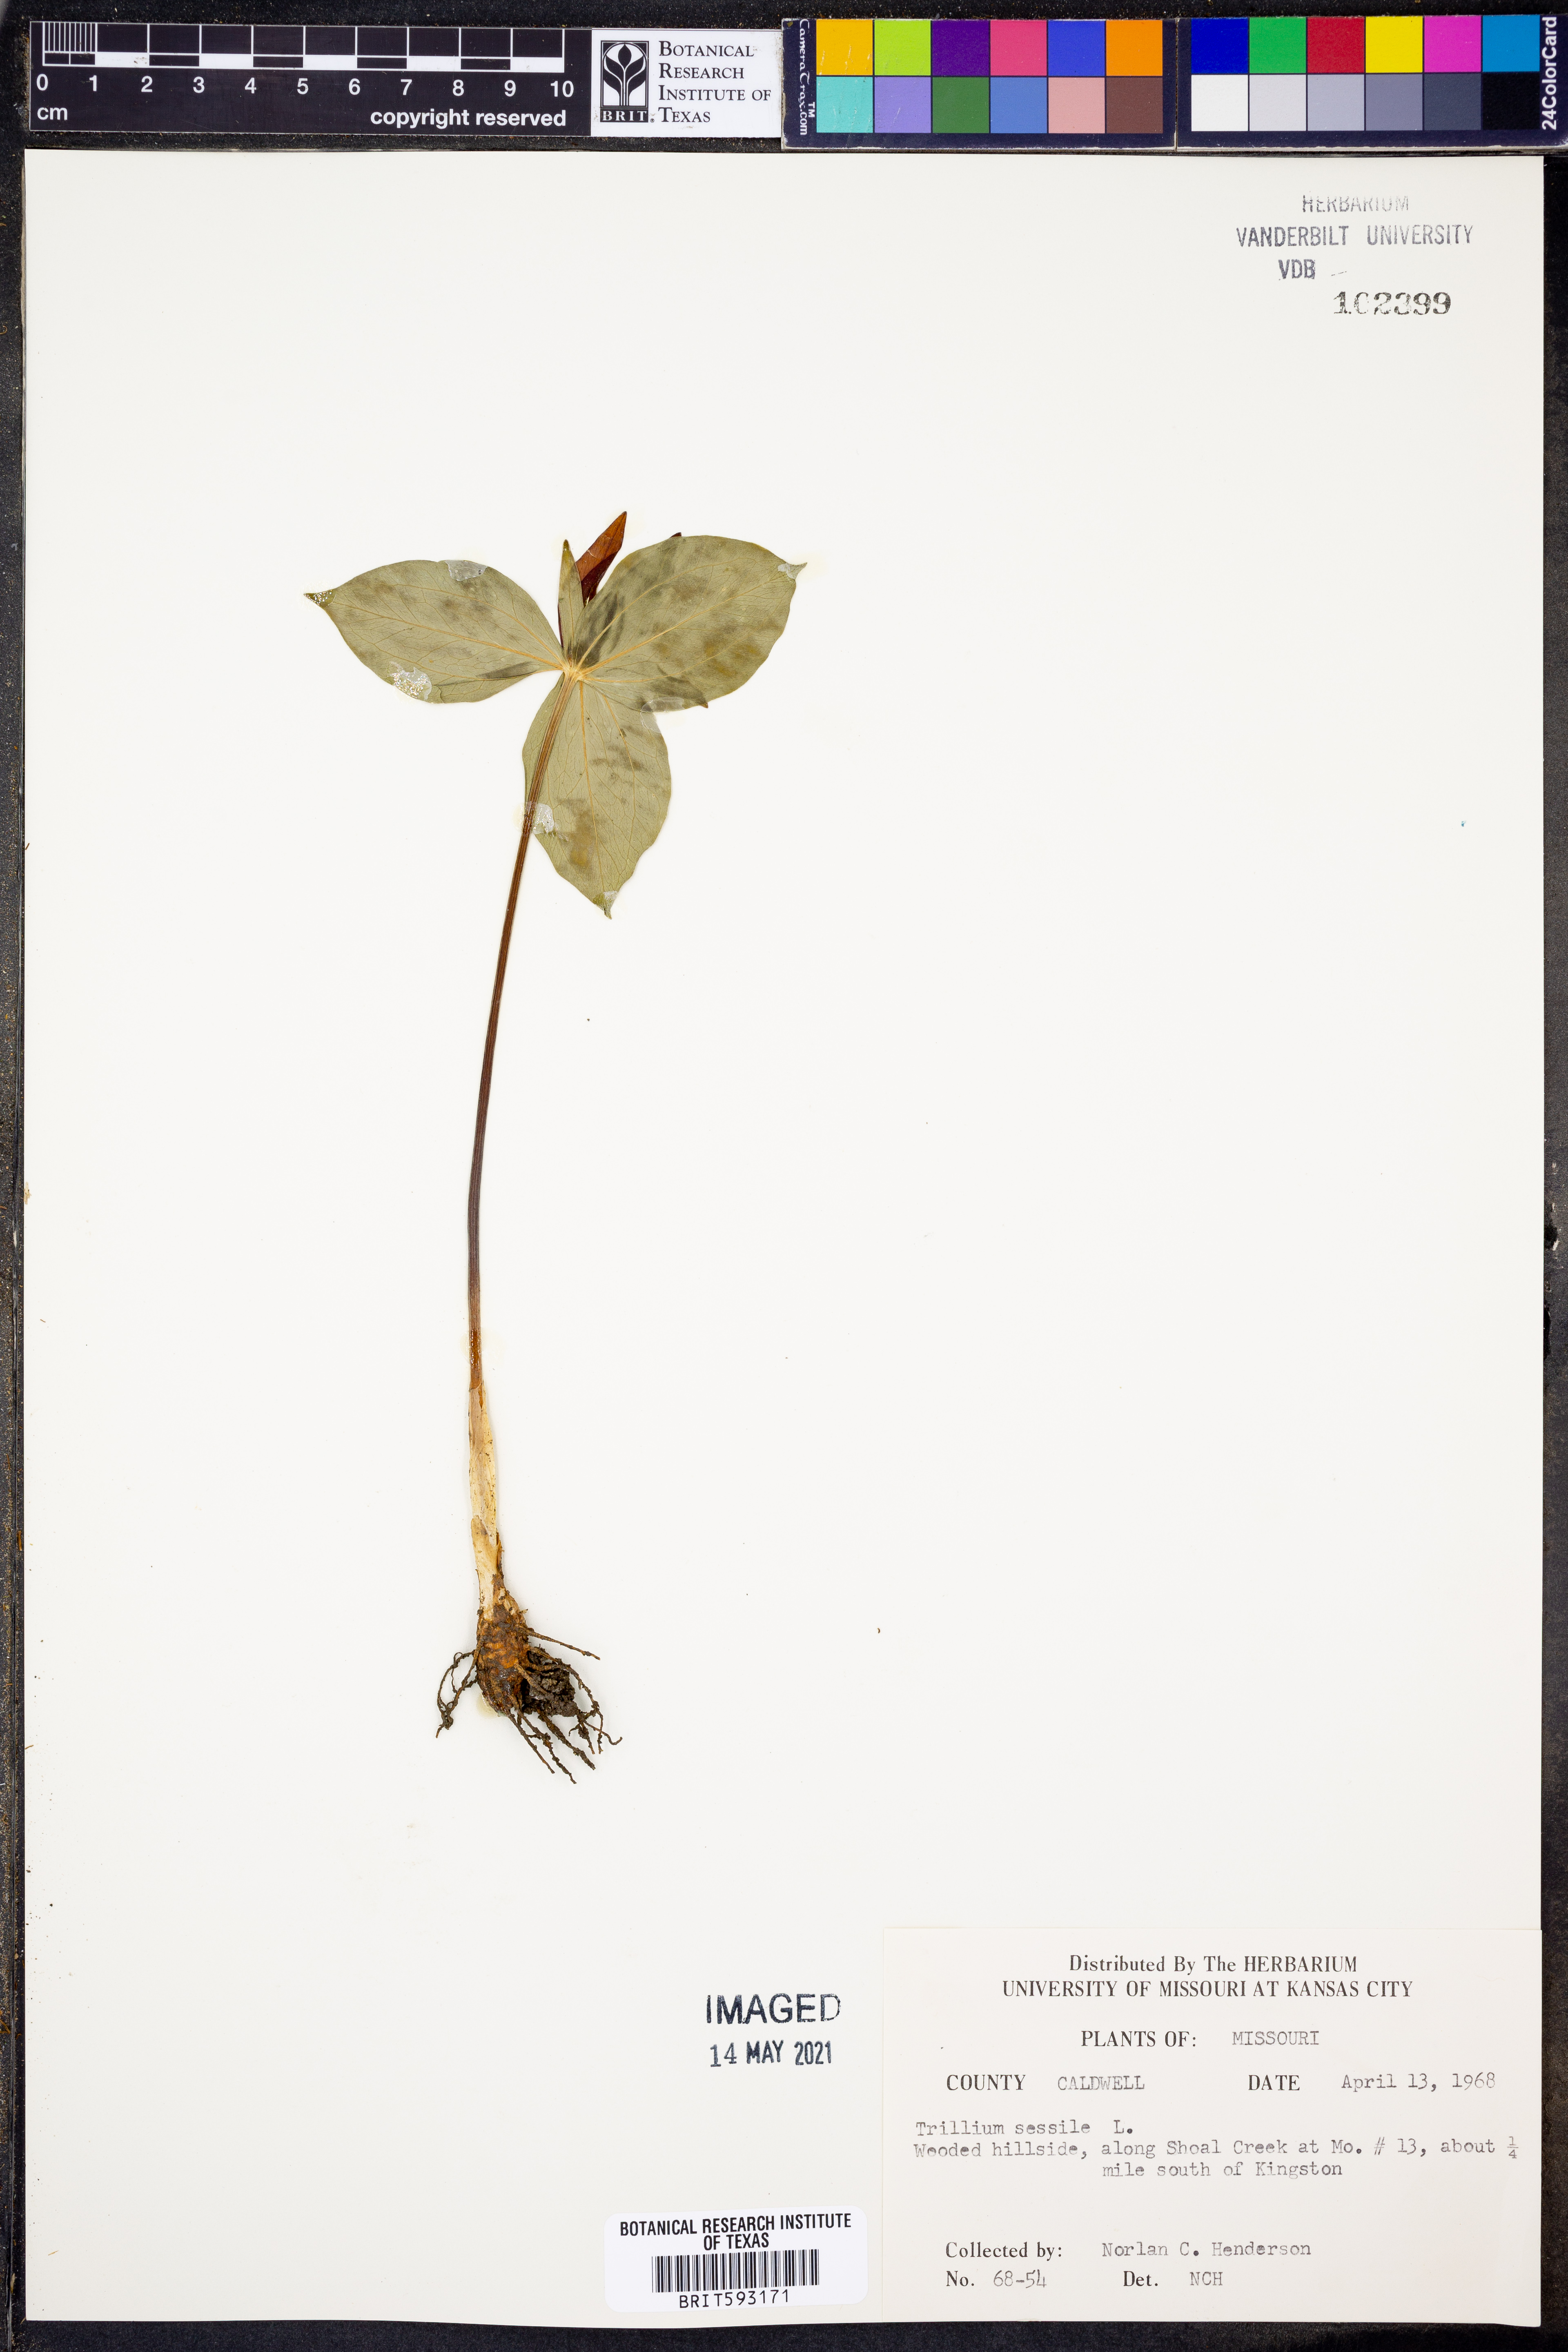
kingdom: Plantae
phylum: Tracheophyta
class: Liliopsida
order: Liliales
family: Melanthiaceae
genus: Trillium
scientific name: Trillium sessile
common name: Sessile trillium
